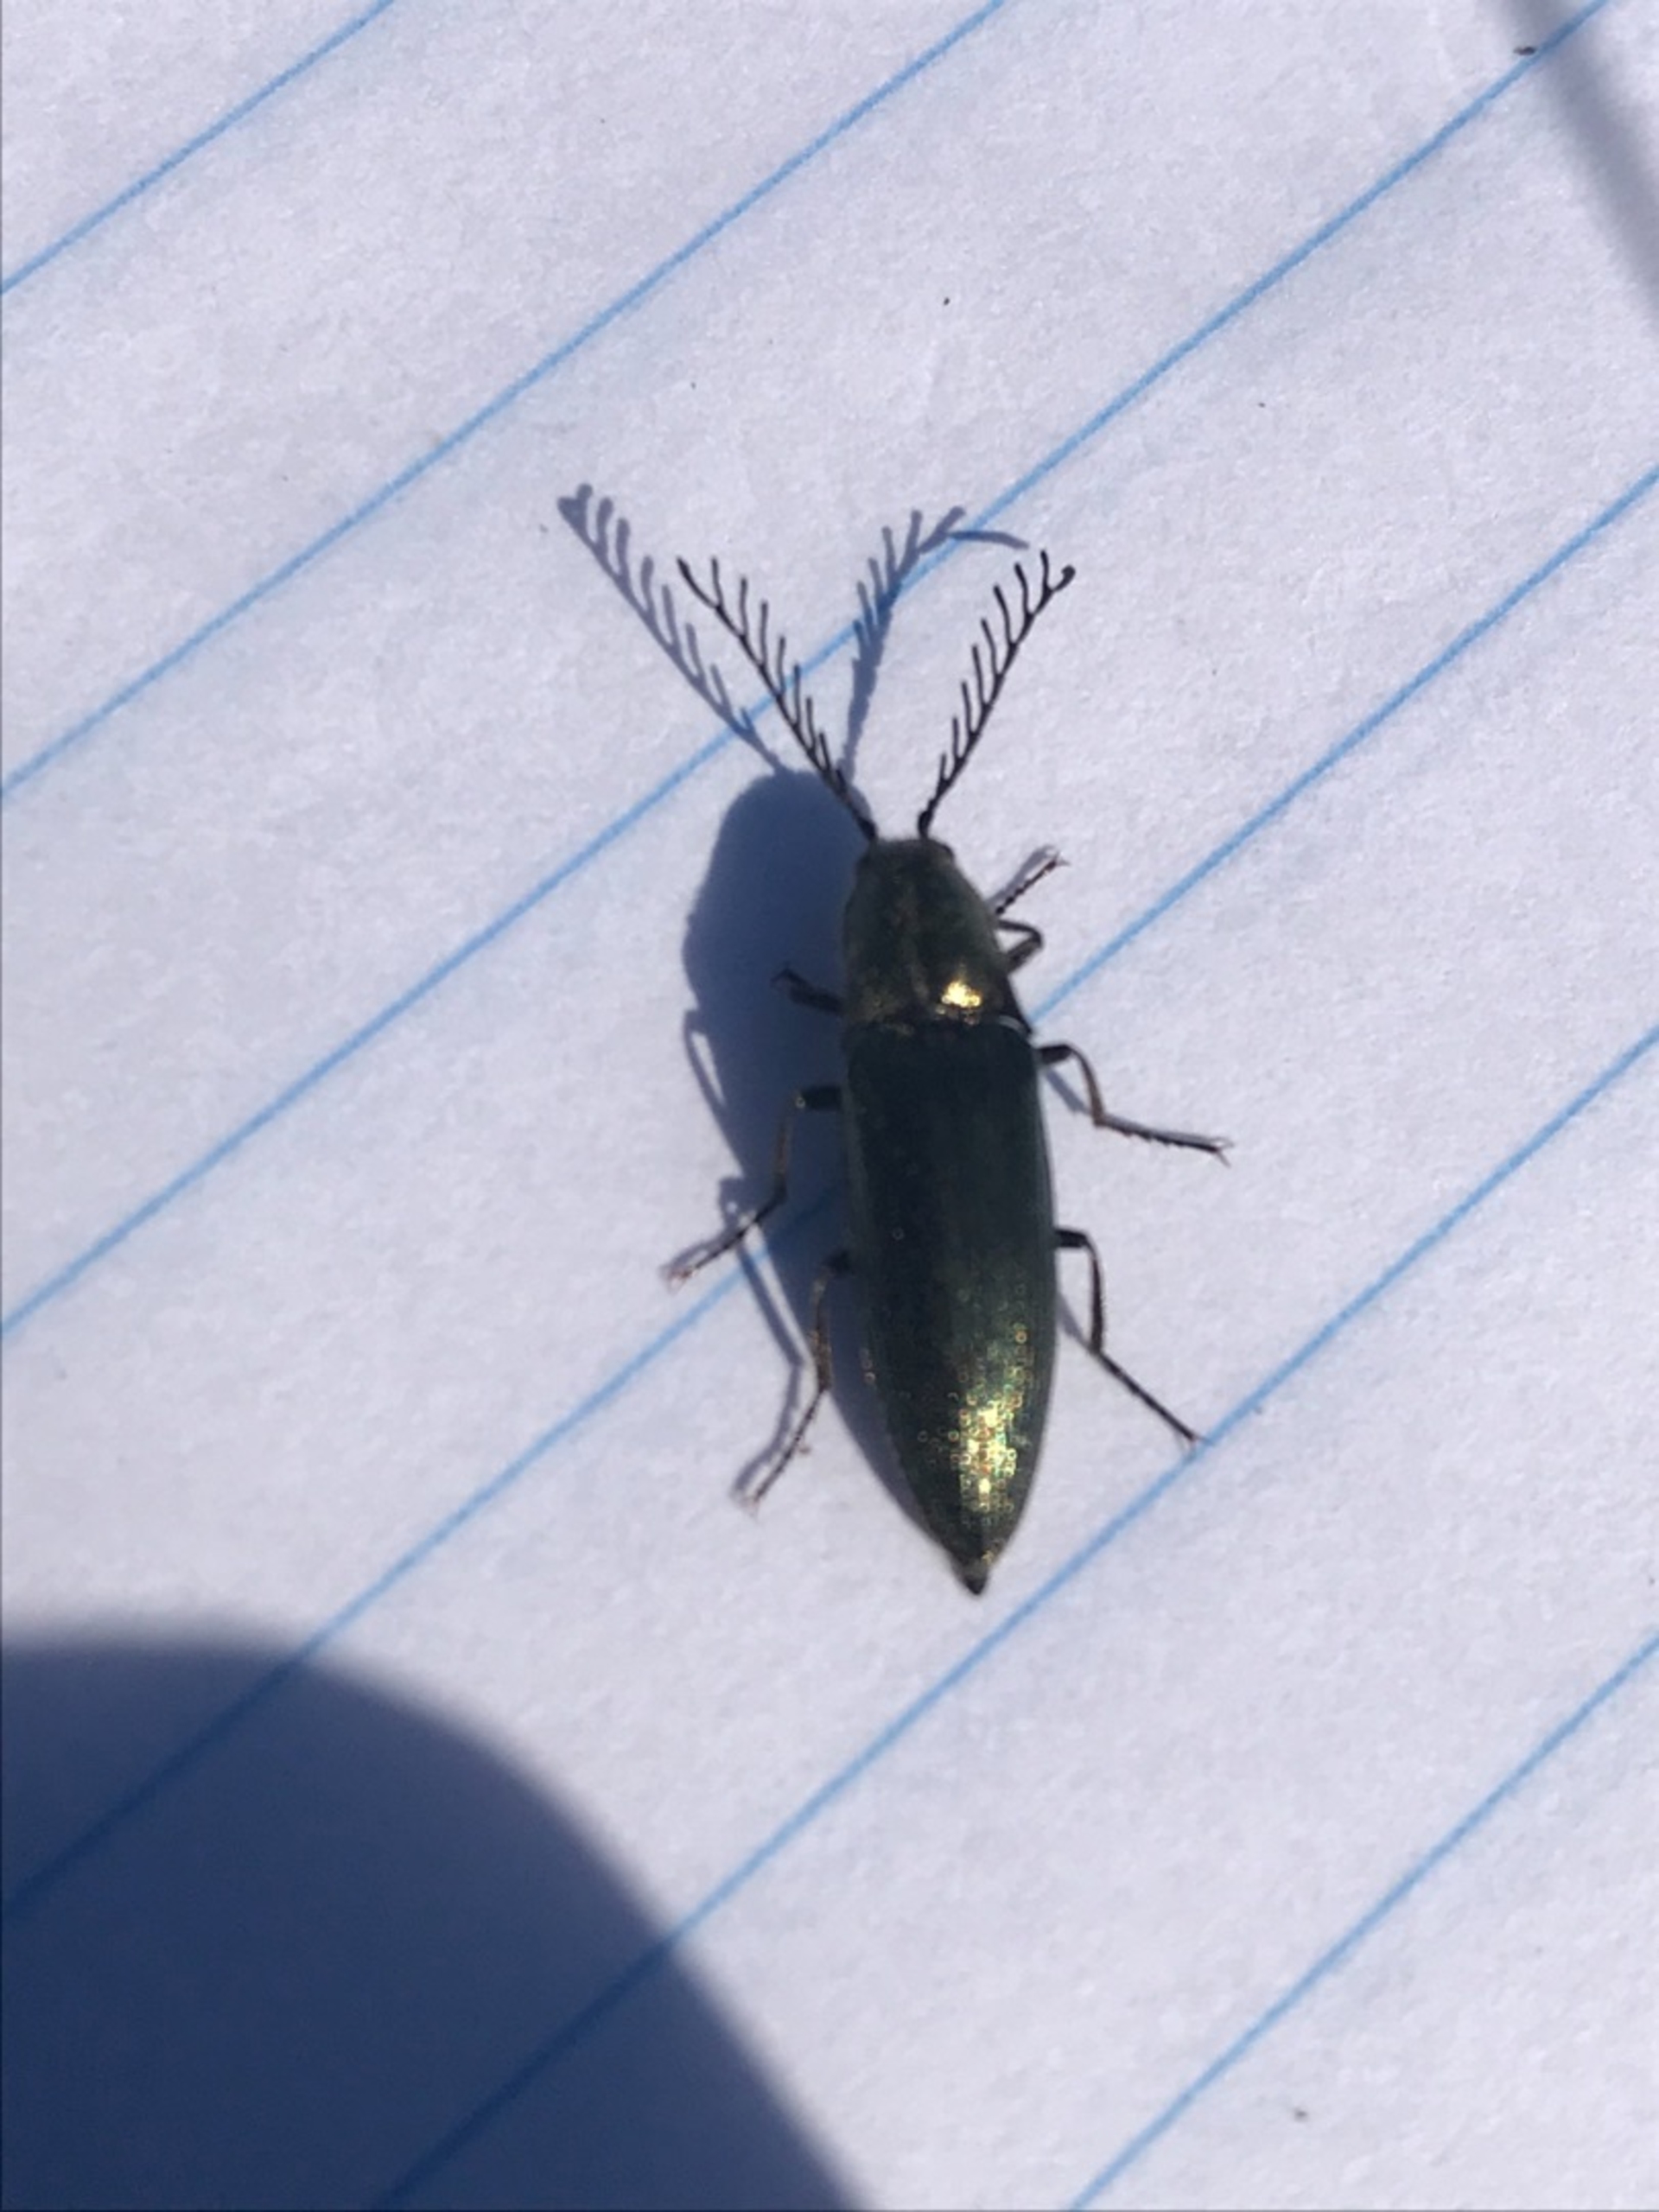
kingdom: Animalia
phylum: Arthropoda
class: Insecta
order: Coleoptera
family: Elateridae
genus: Ctenicera
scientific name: Ctenicera pectinicornis
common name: Kamhornet smælder
